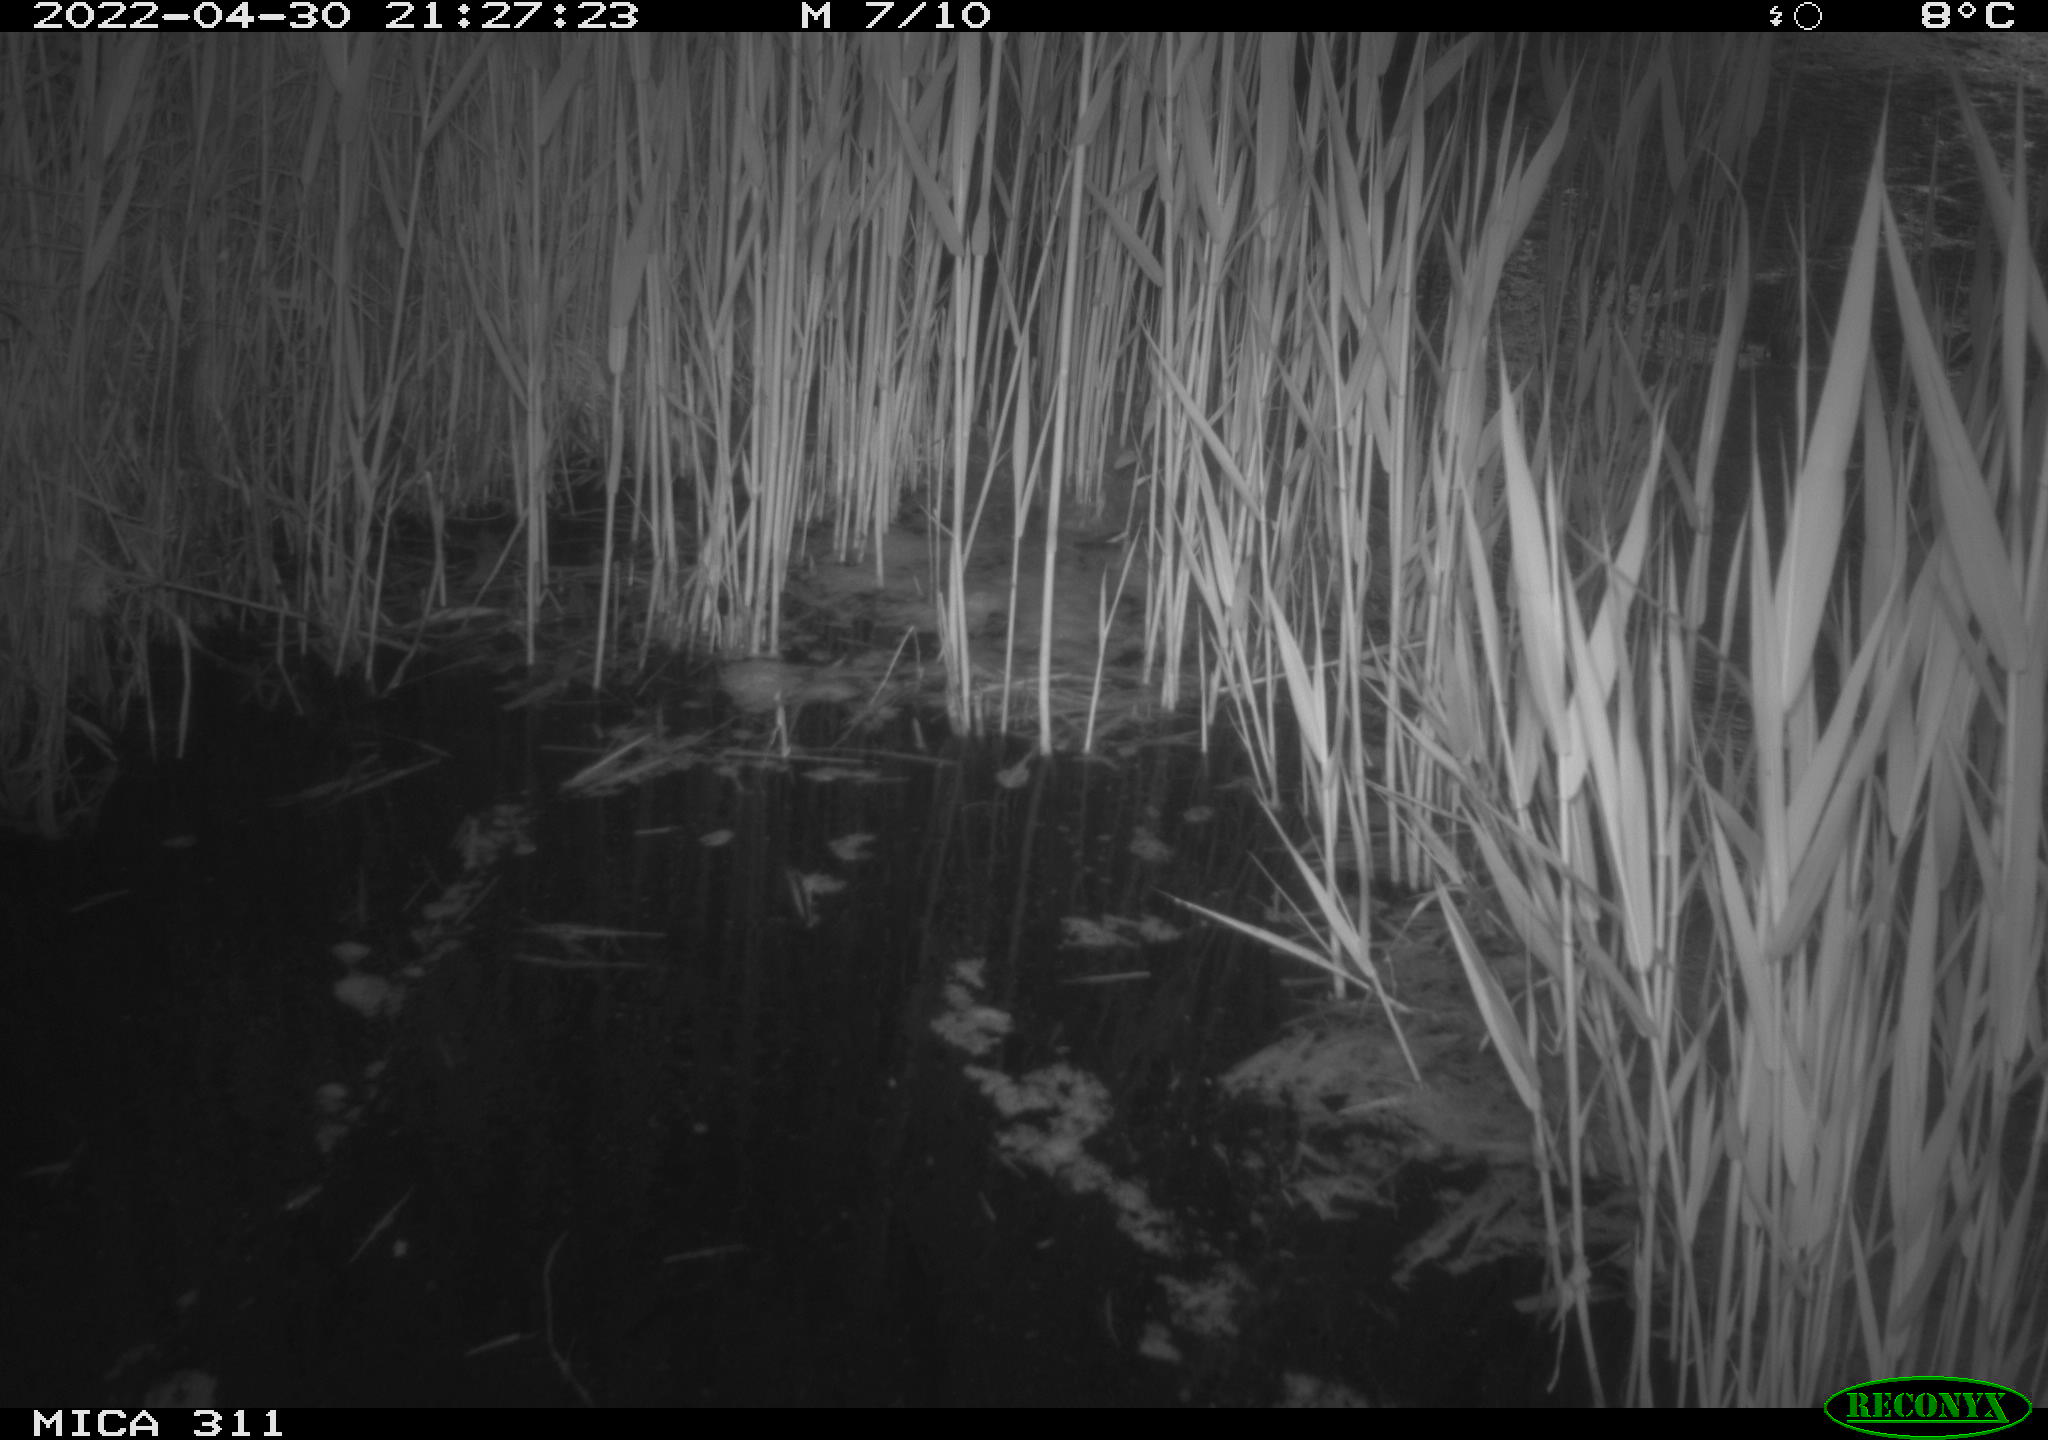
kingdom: Animalia
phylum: Chordata
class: Aves
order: Gruiformes
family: Rallidae
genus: Gallinula
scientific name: Gallinula chloropus
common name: Common moorhen
